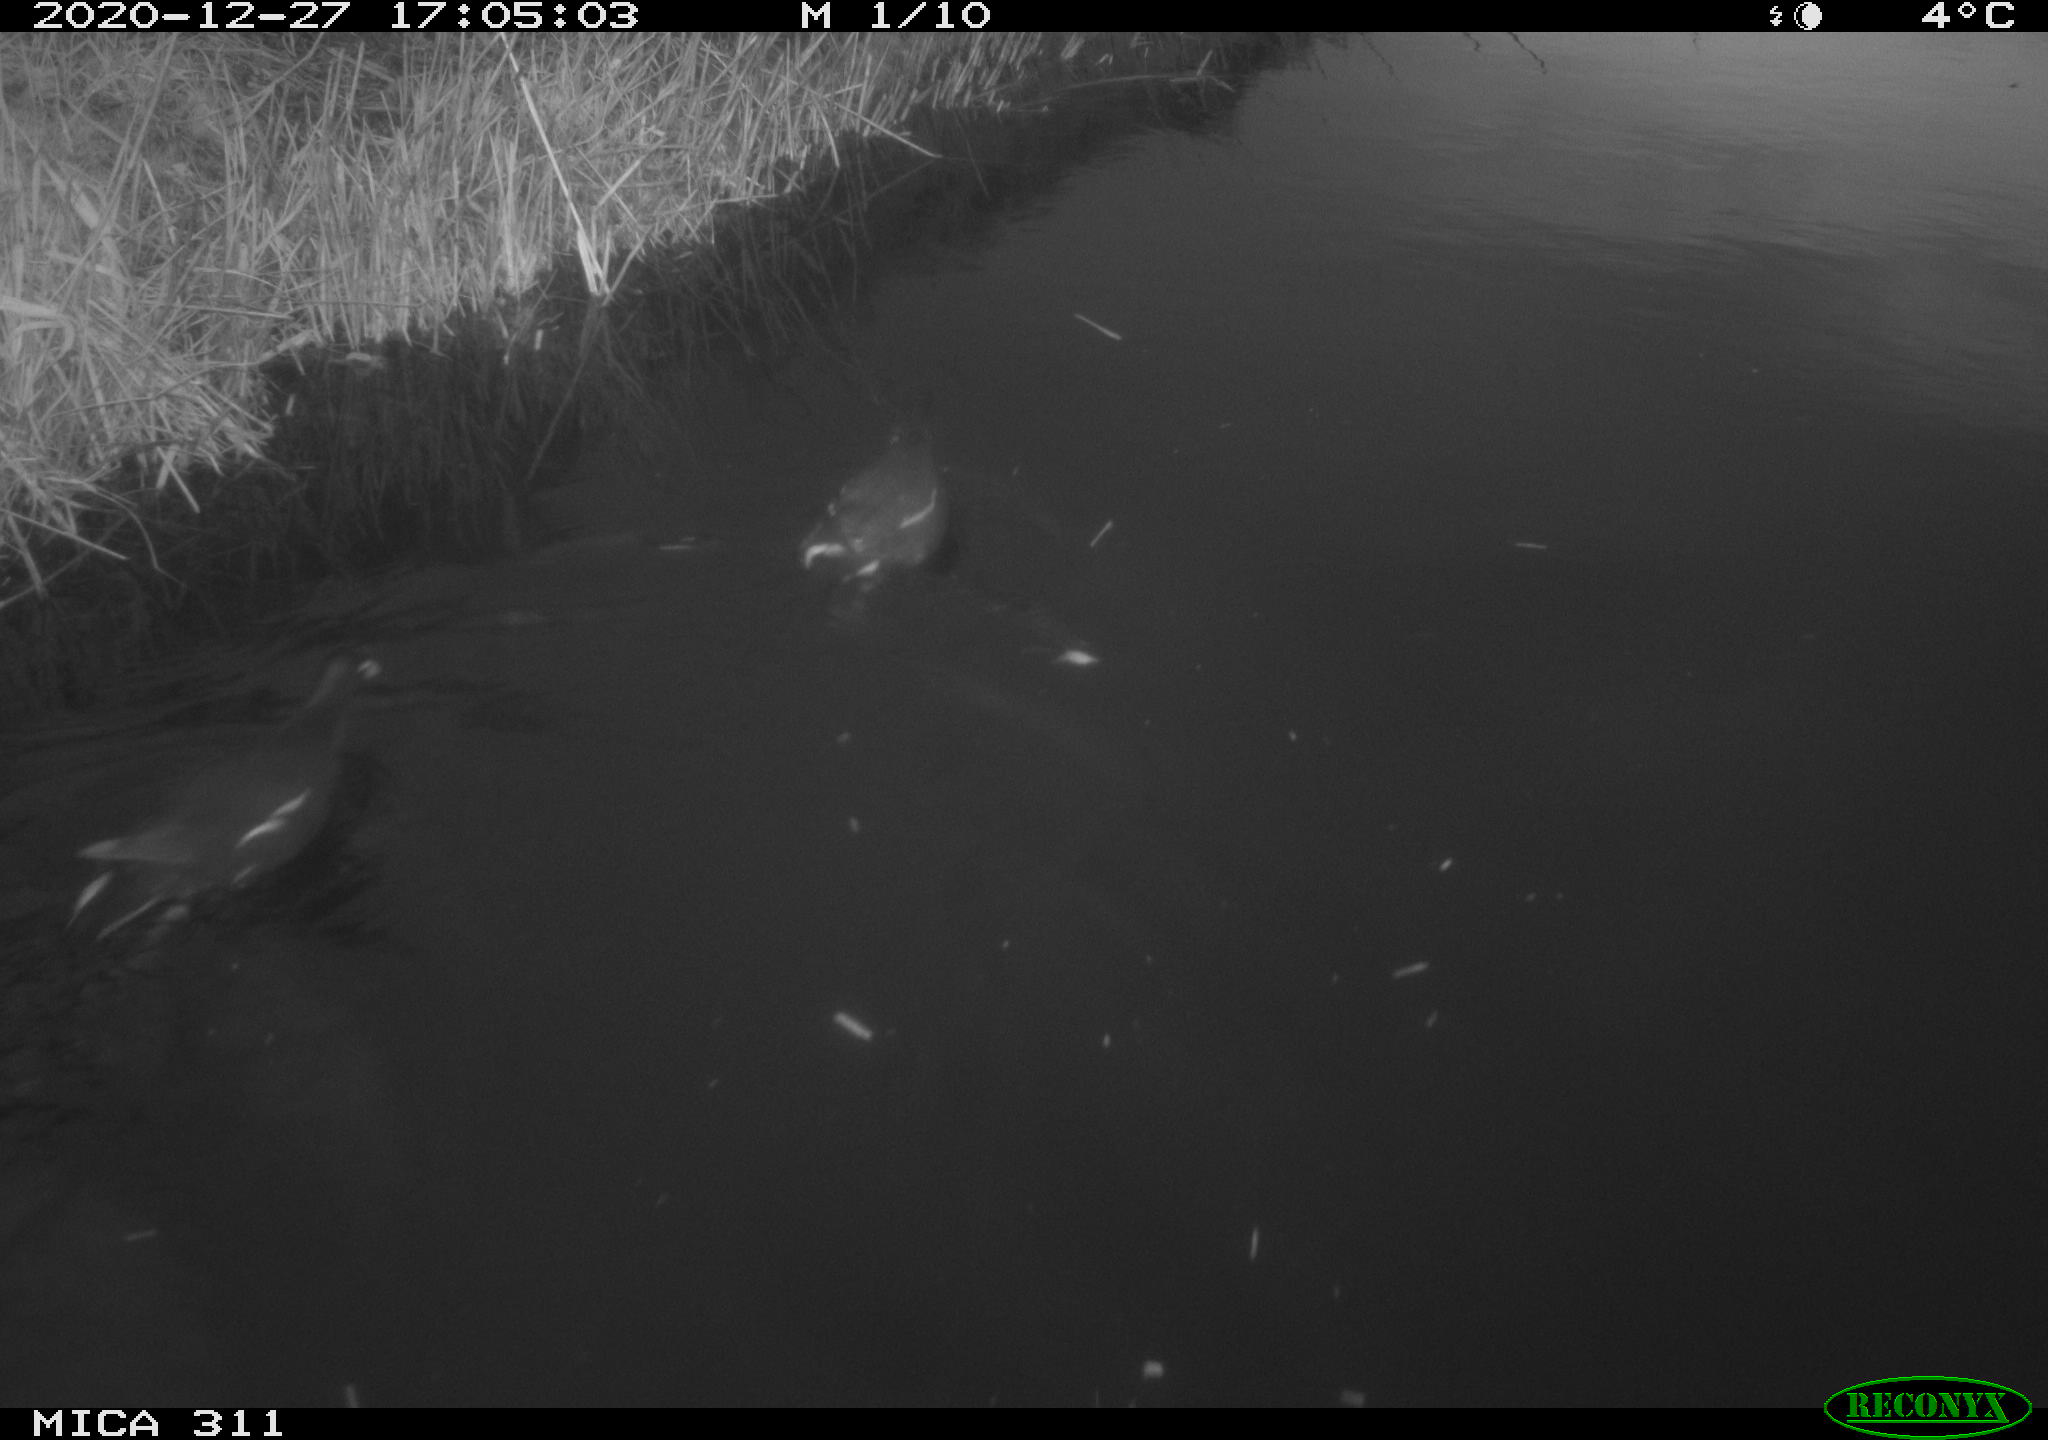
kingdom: Animalia
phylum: Chordata
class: Aves
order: Gruiformes
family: Rallidae
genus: Gallinula
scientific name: Gallinula chloropus
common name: Common moorhen
